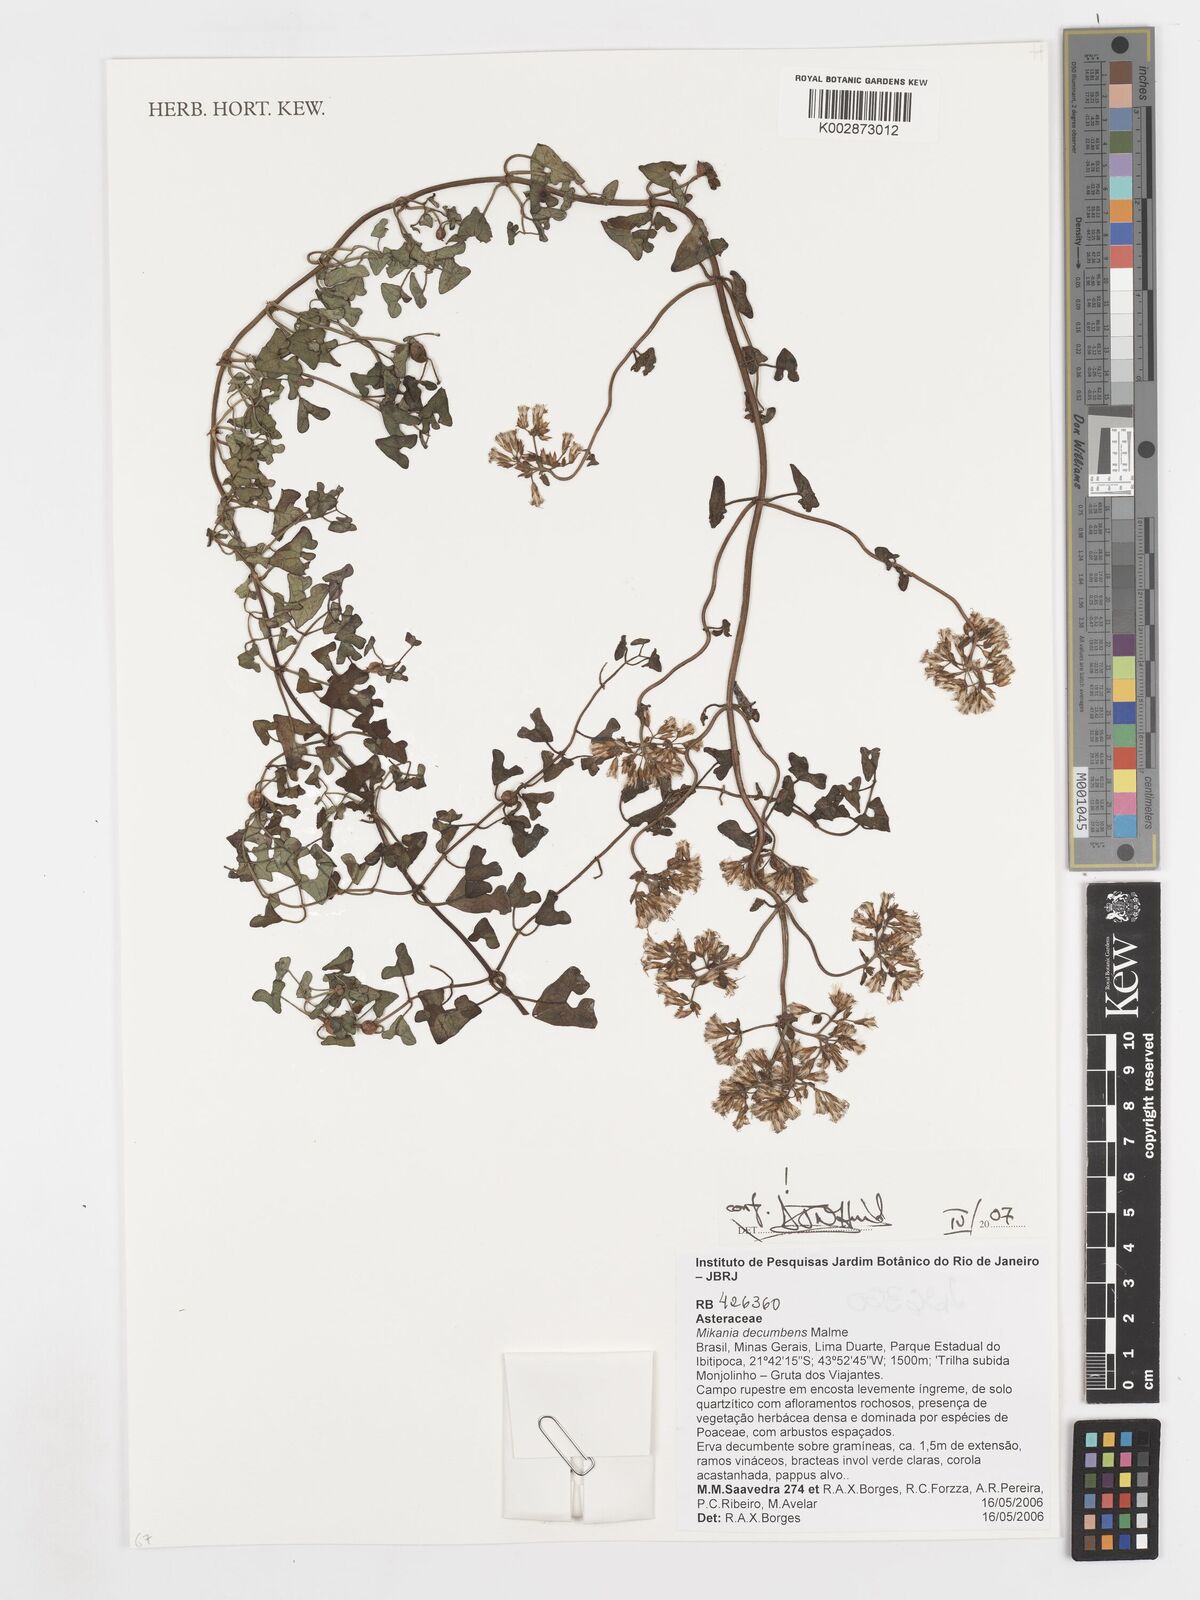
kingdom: Plantae
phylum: Tracheophyta
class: Magnoliopsida
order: Asterales
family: Asteraceae
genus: Mikania
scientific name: Mikania decumbens
